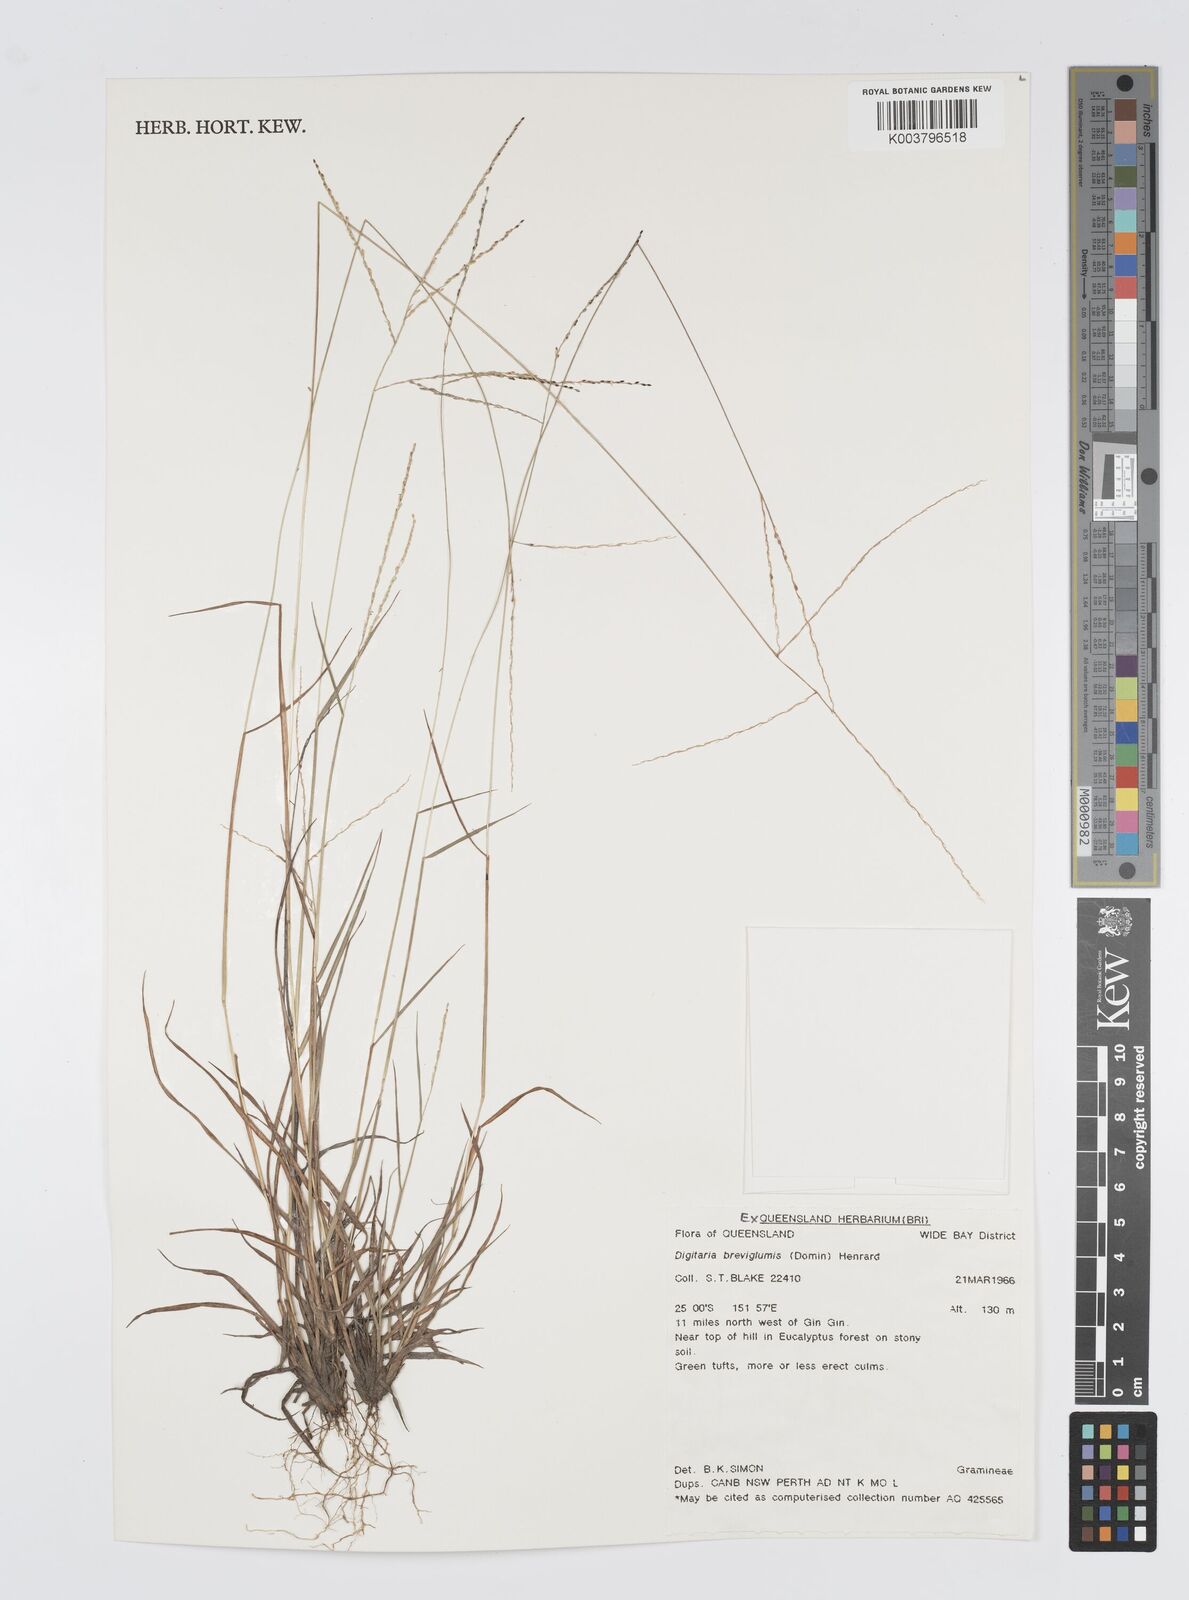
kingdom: Plantae
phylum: Tracheophyta
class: Liliopsida
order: Poales
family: Poaceae
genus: Digitaria
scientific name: Digitaria breviglumis
